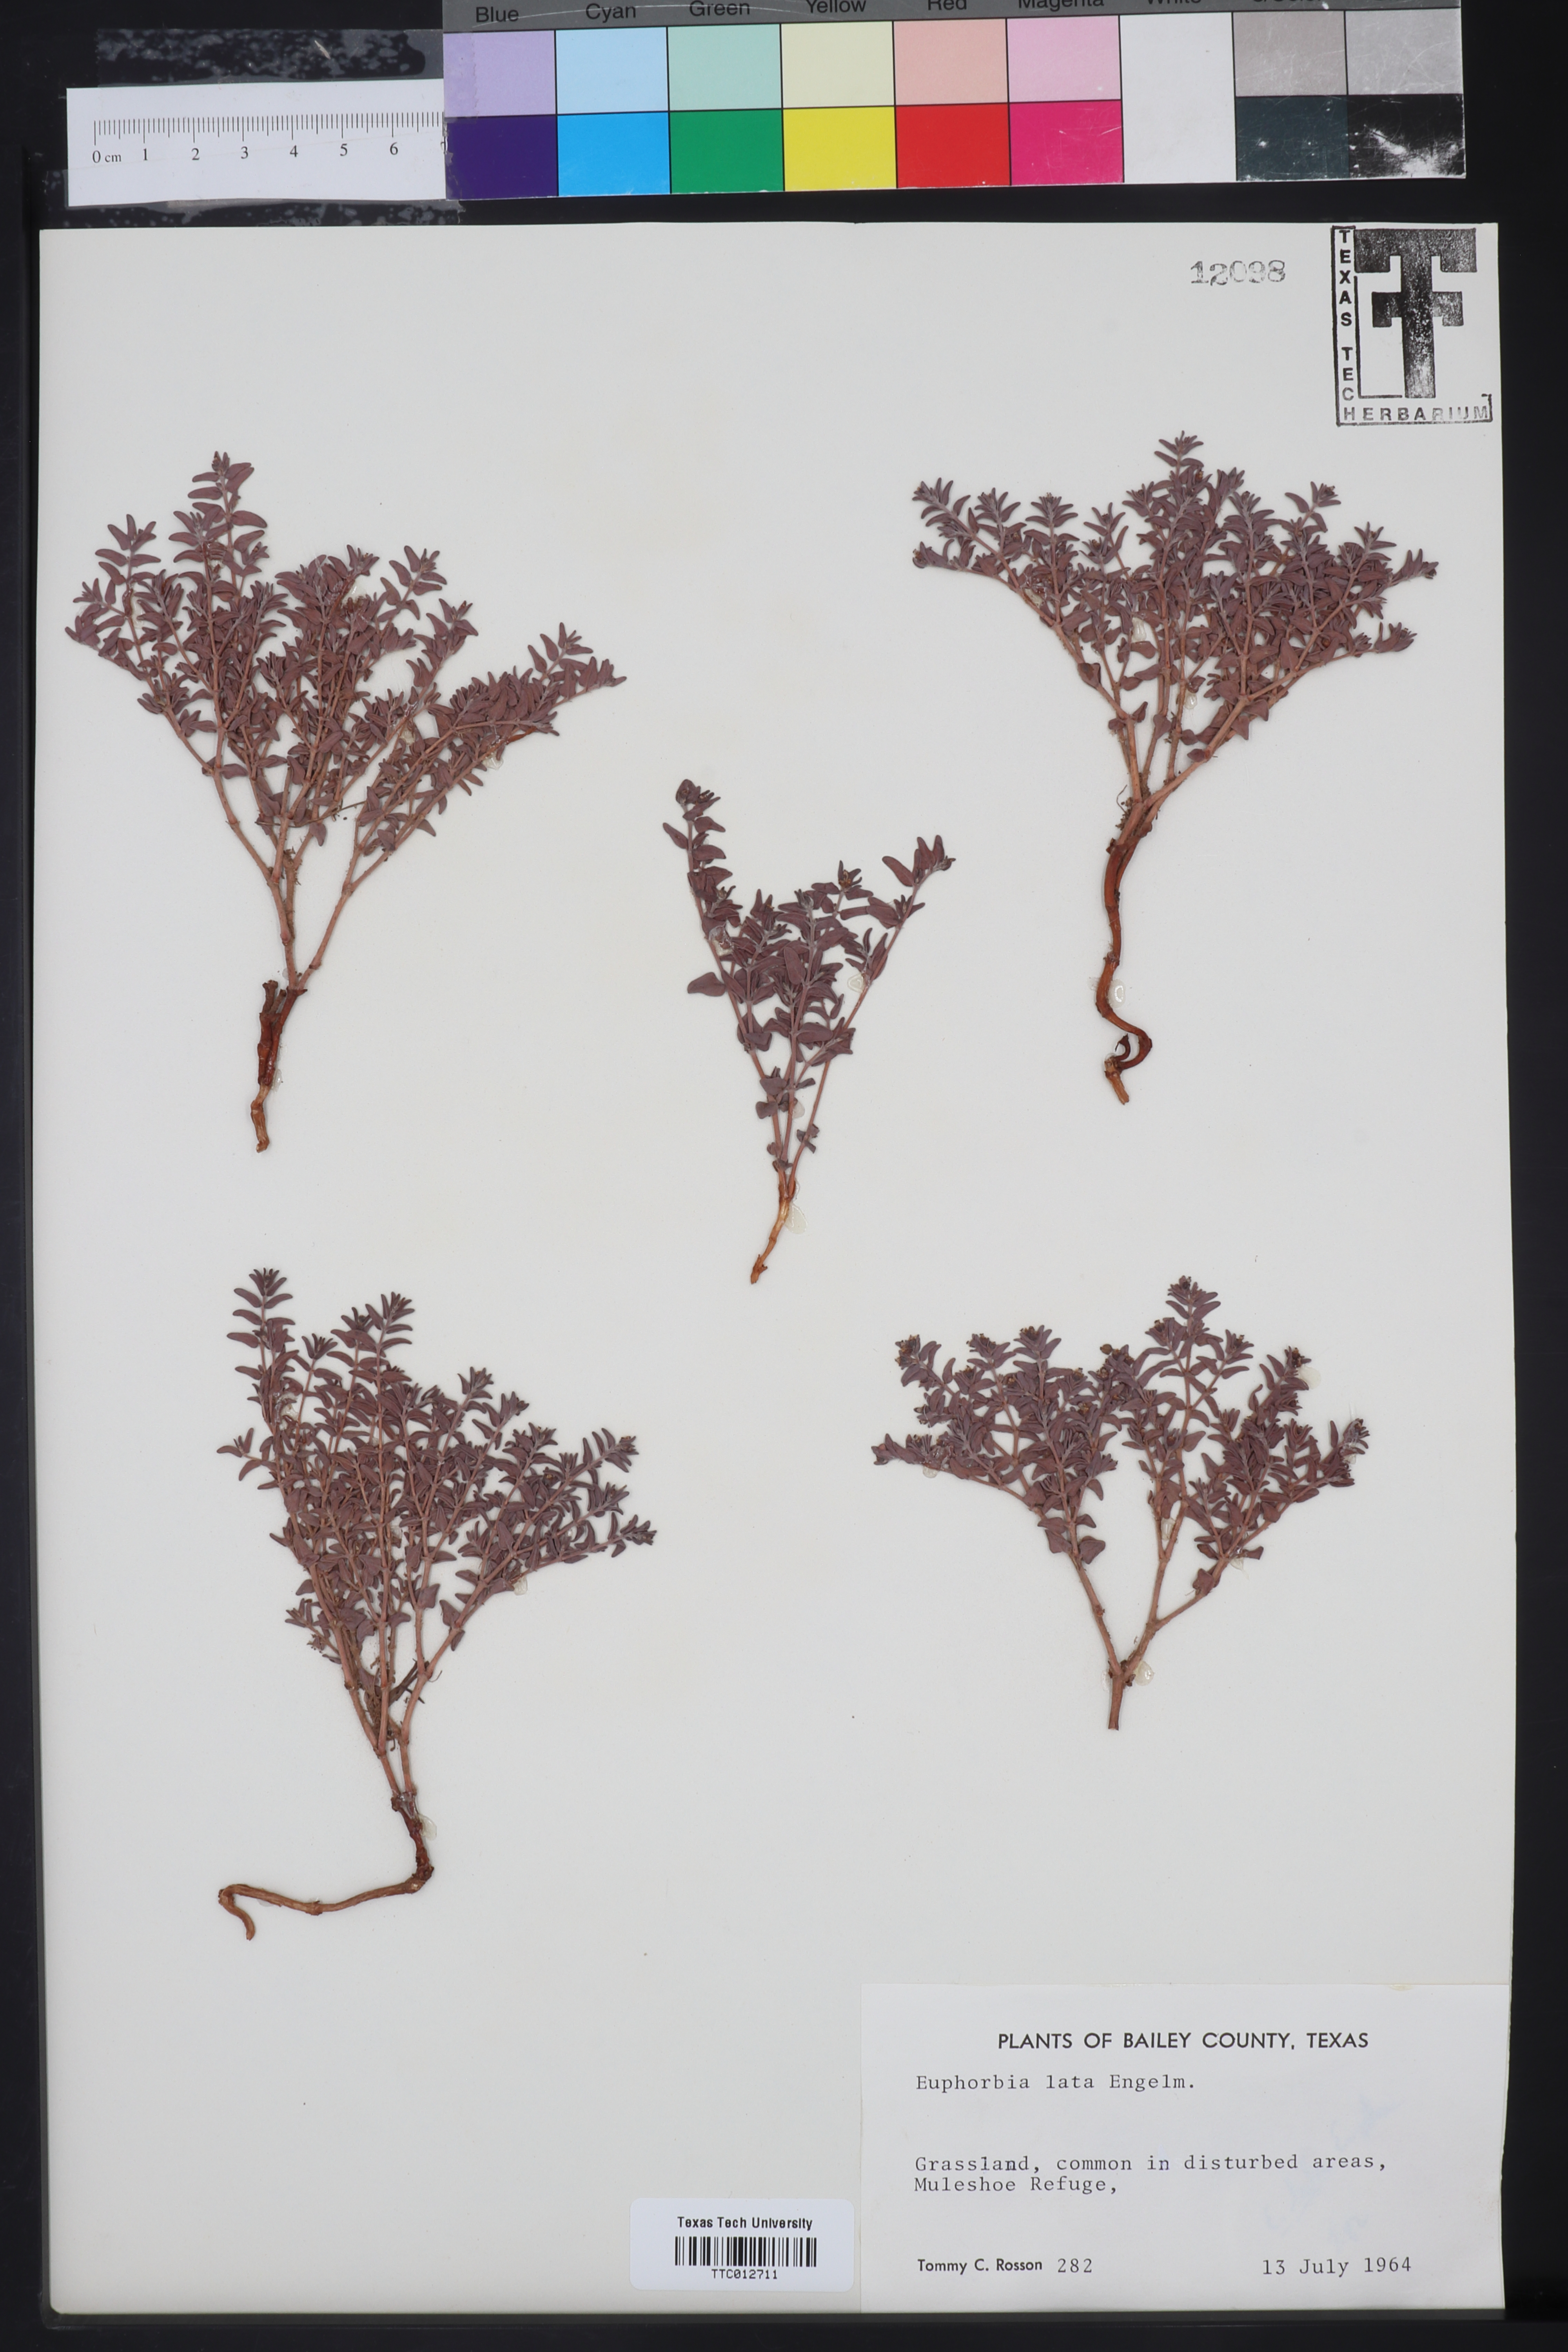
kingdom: Plantae
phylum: Tracheophyta
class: Magnoliopsida
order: Malpighiales
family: Euphorbiaceae
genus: Euphorbia
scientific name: Euphorbia lata
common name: Hoary euphorbia
